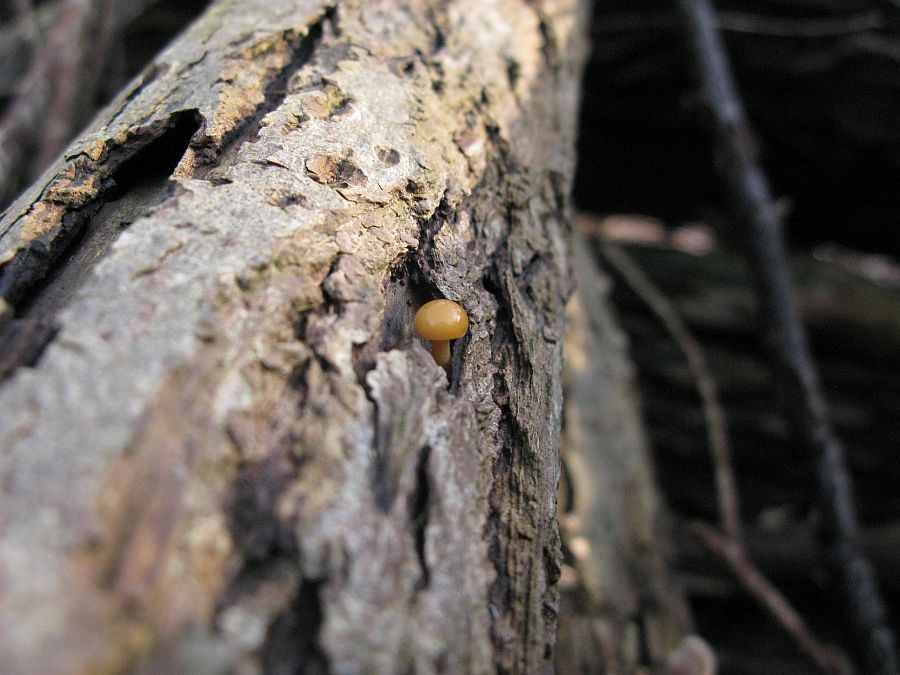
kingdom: Fungi
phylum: Basidiomycota
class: Agaricomycetes
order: Agaricales
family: Physalacriaceae
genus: Flammulina
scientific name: Flammulina velutipes
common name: gul fløjlsfod
